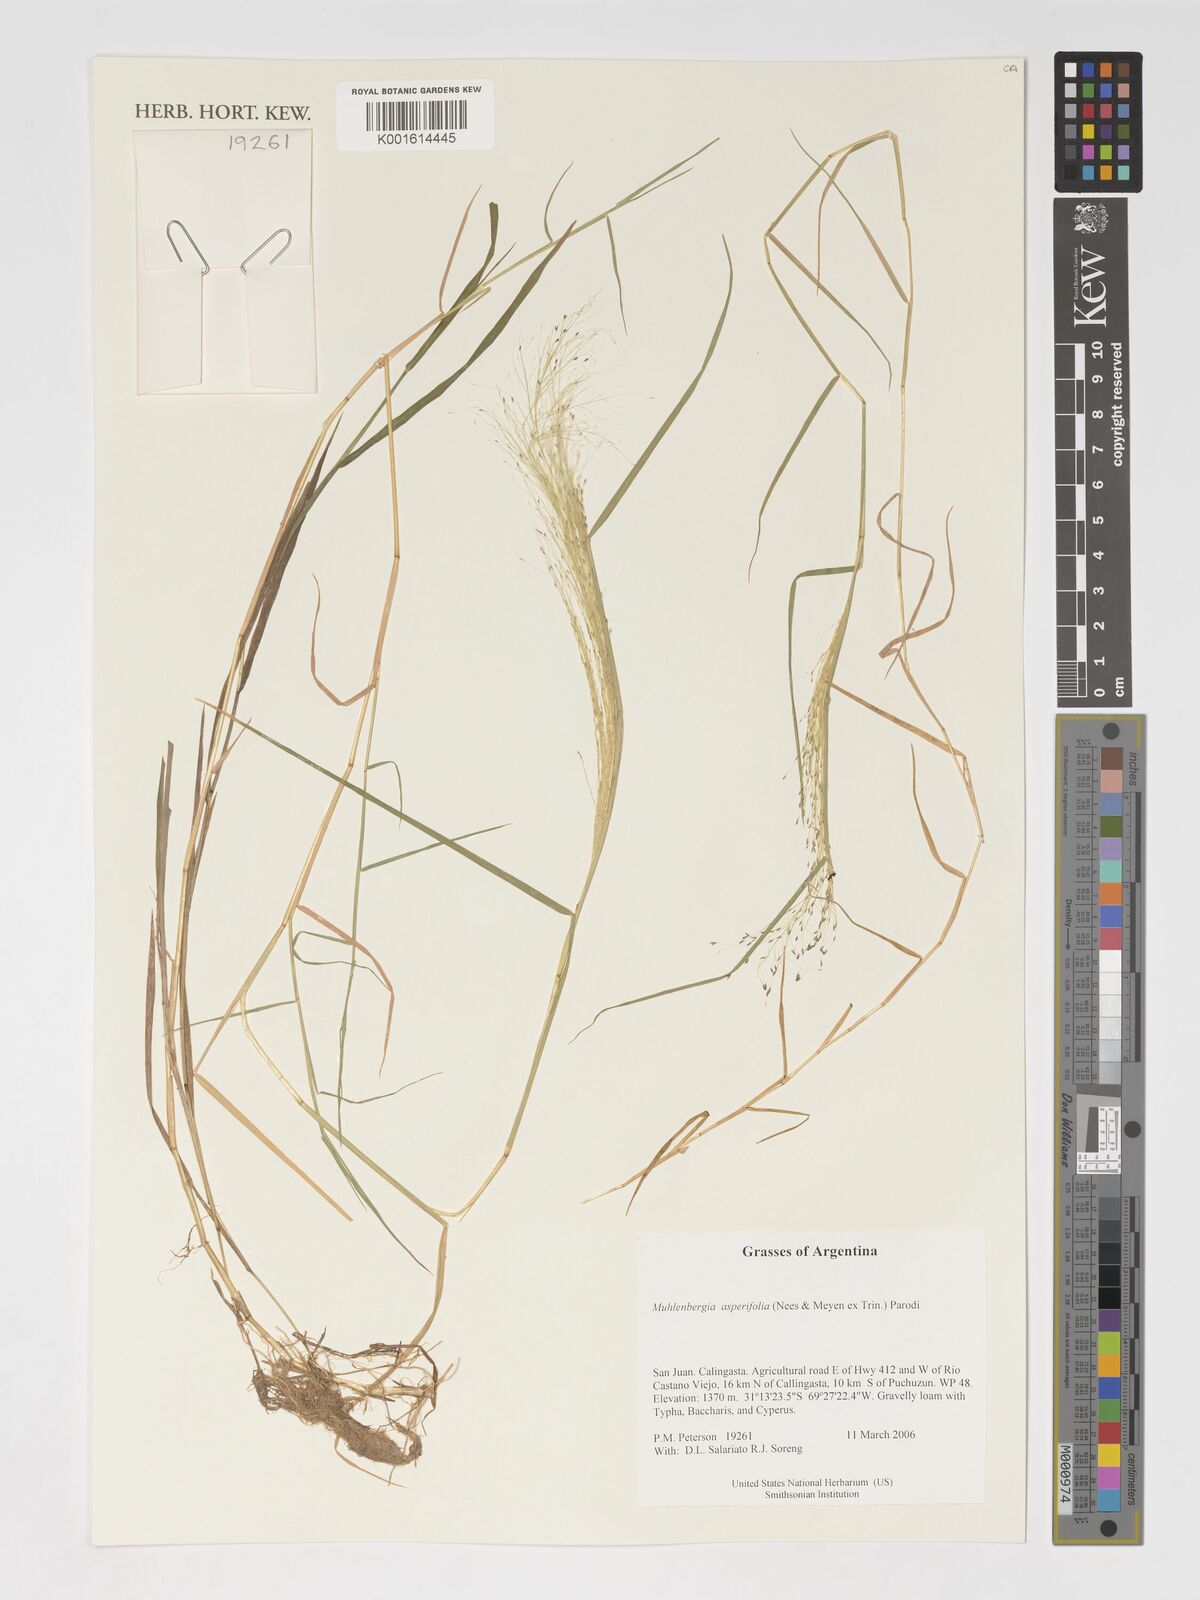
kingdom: Plantae
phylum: Tracheophyta
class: Liliopsida
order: Poales
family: Poaceae
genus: Muhlenbergia
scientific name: Muhlenbergia asperifolia
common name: Alkali muhly
